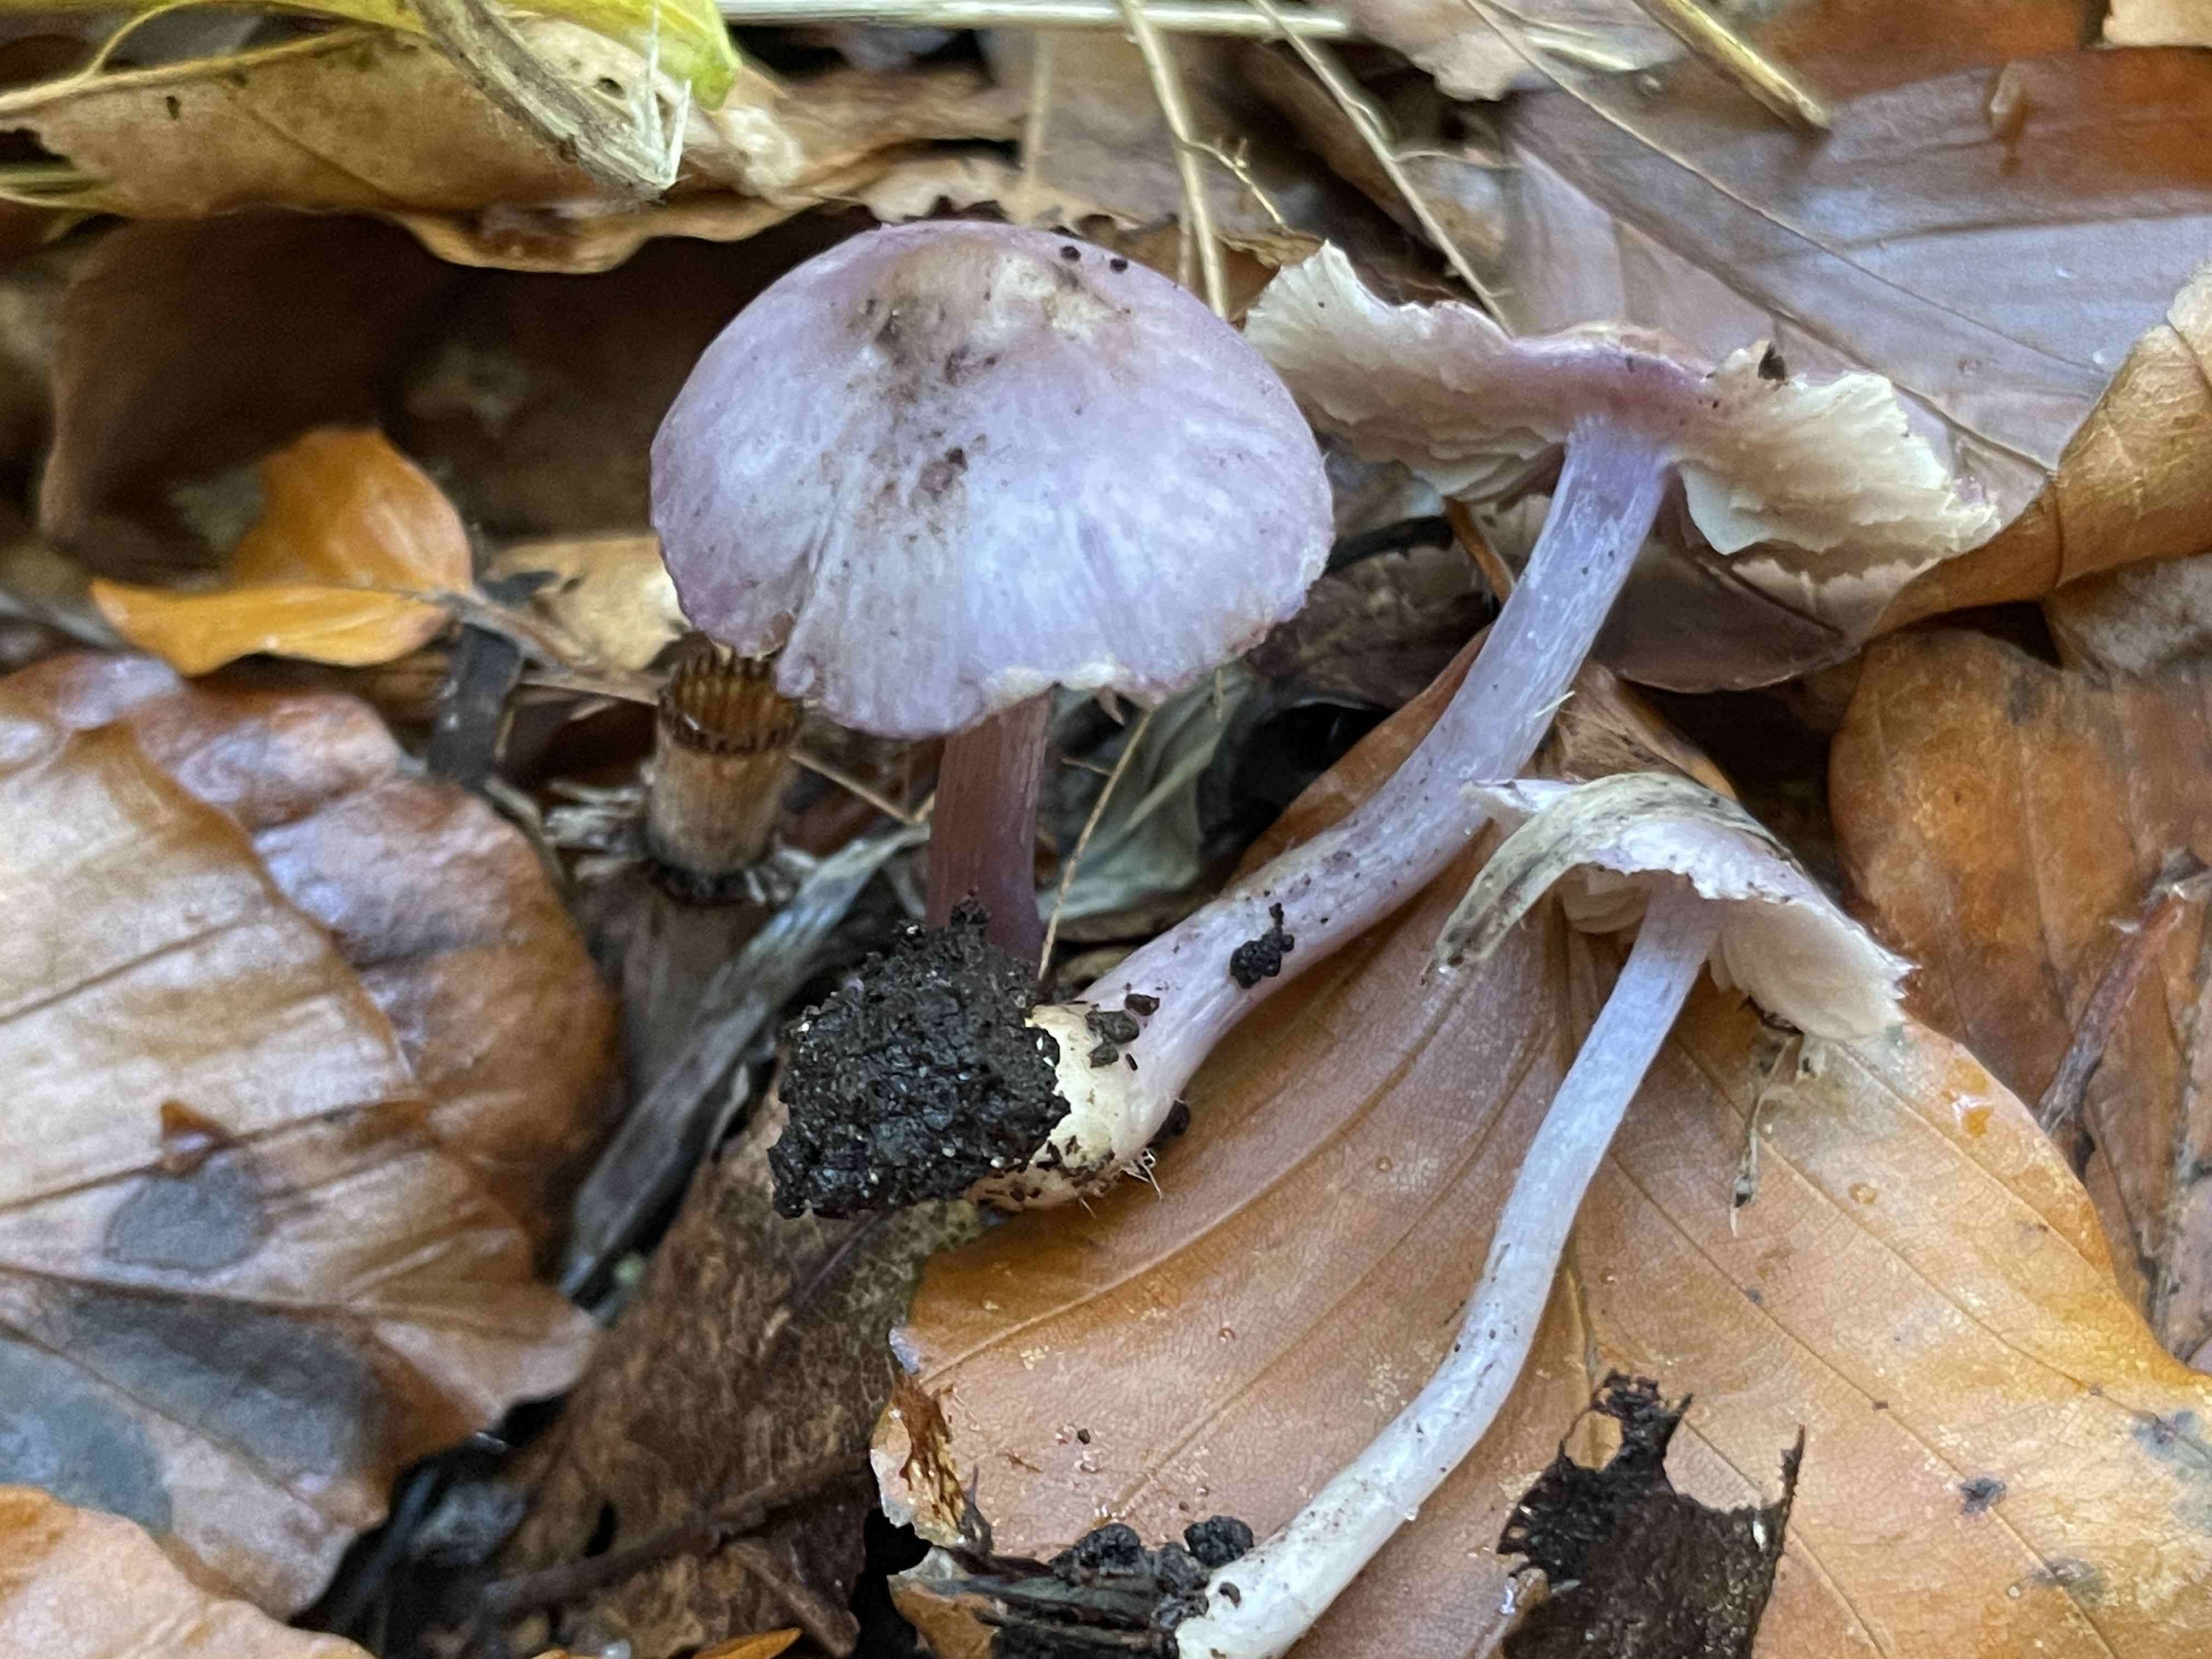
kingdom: Fungi
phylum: Basidiomycota
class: Agaricomycetes
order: Agaricales
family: Inocybaceae
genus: Inocybe
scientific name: Inocybe geophylla
